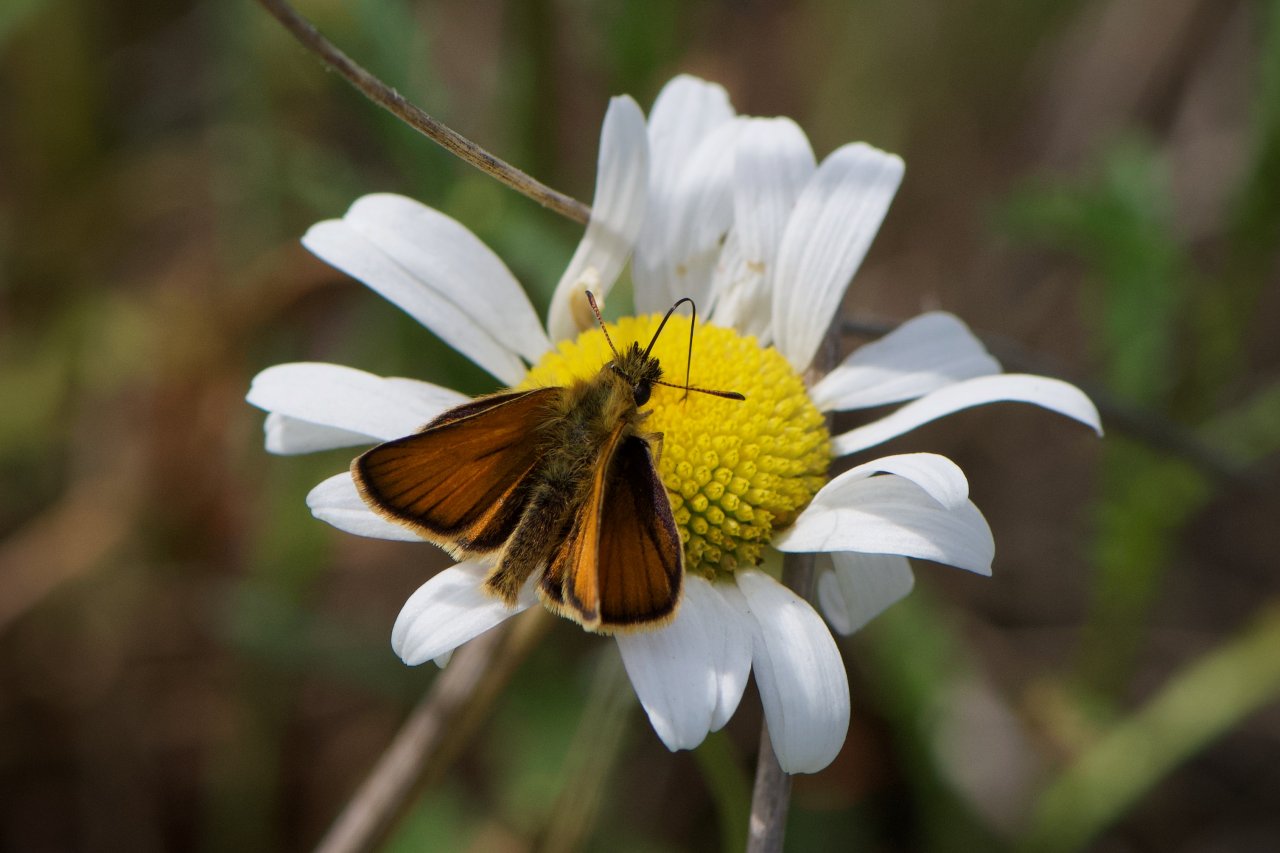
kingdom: Animalia
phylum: Arthropoda
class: Insecta
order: Lepidoptera
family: Hesperiidae
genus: Thymelicus
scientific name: Thymelicus lineola
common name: European Skipper
